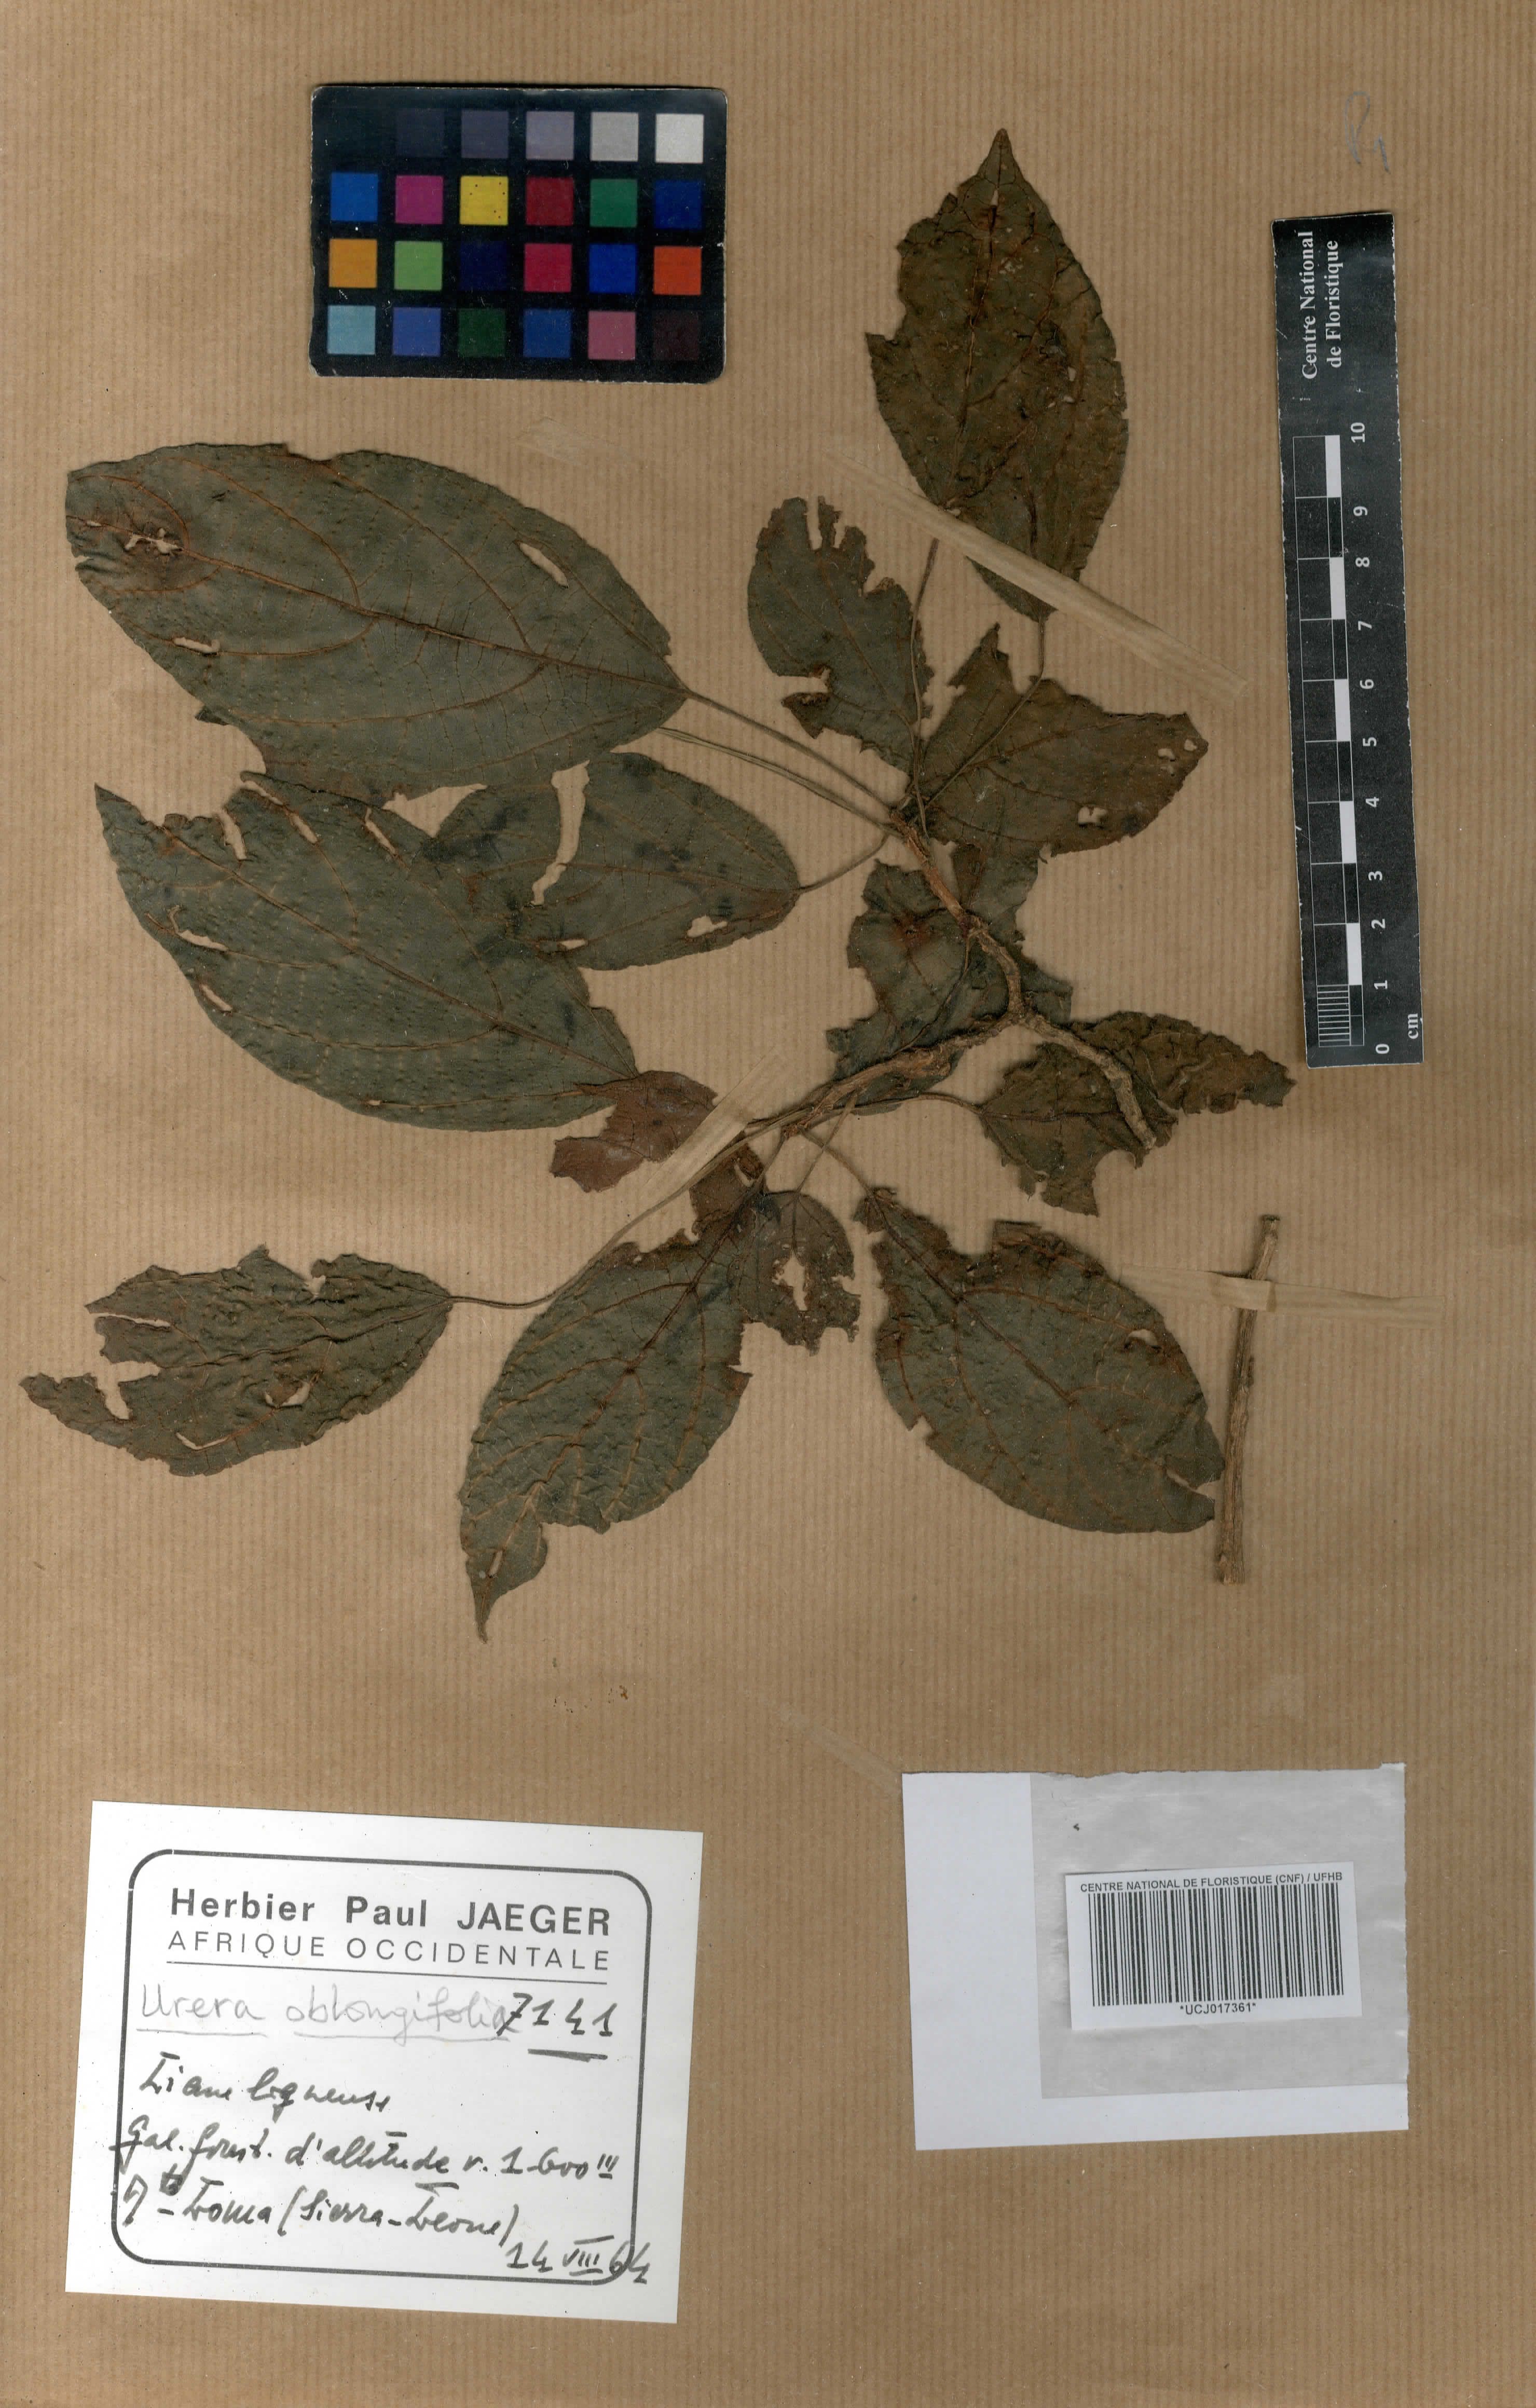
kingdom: Plantae
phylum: Tracheophyta
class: Magnoliopsida
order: Rosales
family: Urticaceae
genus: Scepocarpus
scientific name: Scepocarpus oblongifolius
